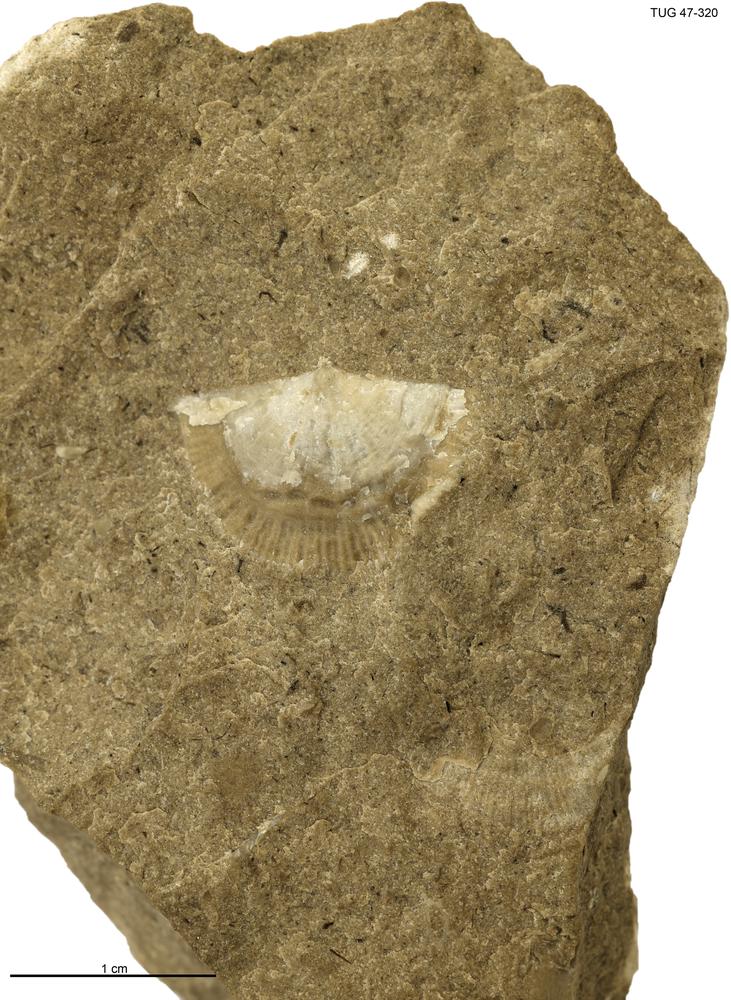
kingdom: Animalia
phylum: Brachiopoda
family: Strophomenidae
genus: Holtedahlina
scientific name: Holtedahlina
